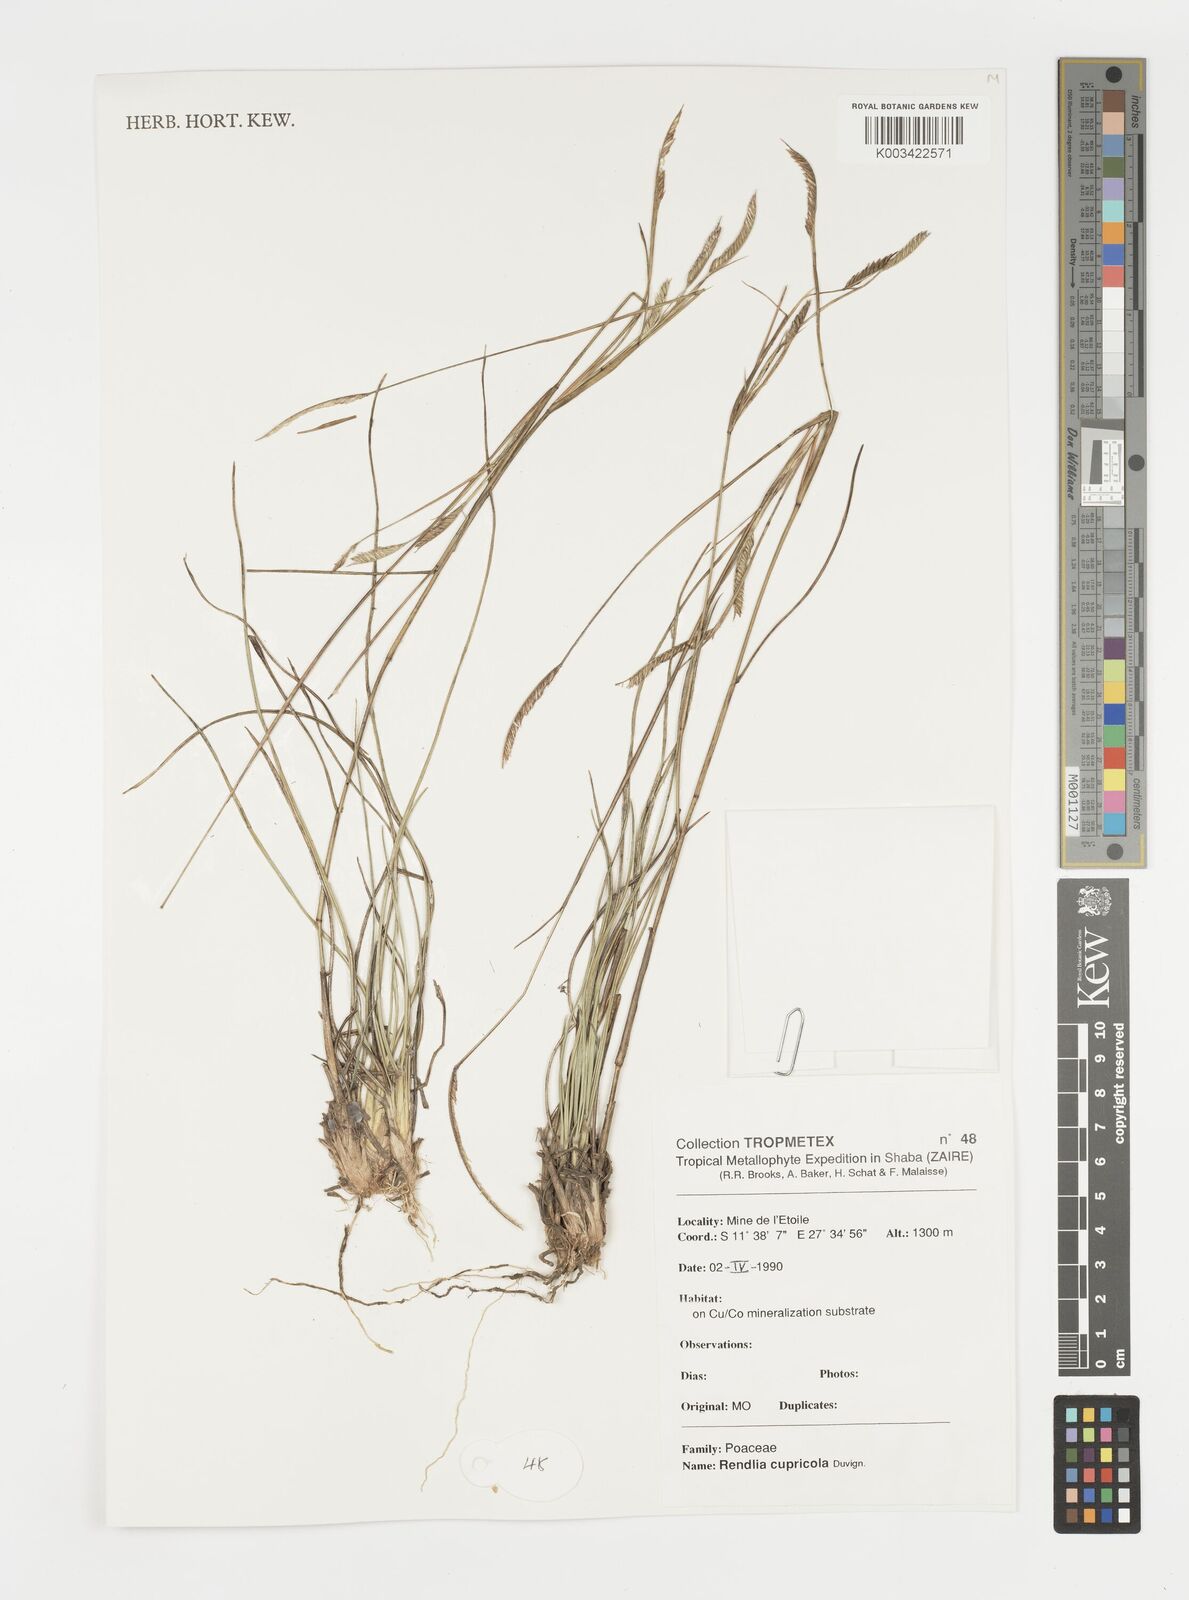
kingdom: Plantae
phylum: Tracheophyta
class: Liliopsida
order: Poales
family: Poaceae
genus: Microchloa
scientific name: Microchloa altera
